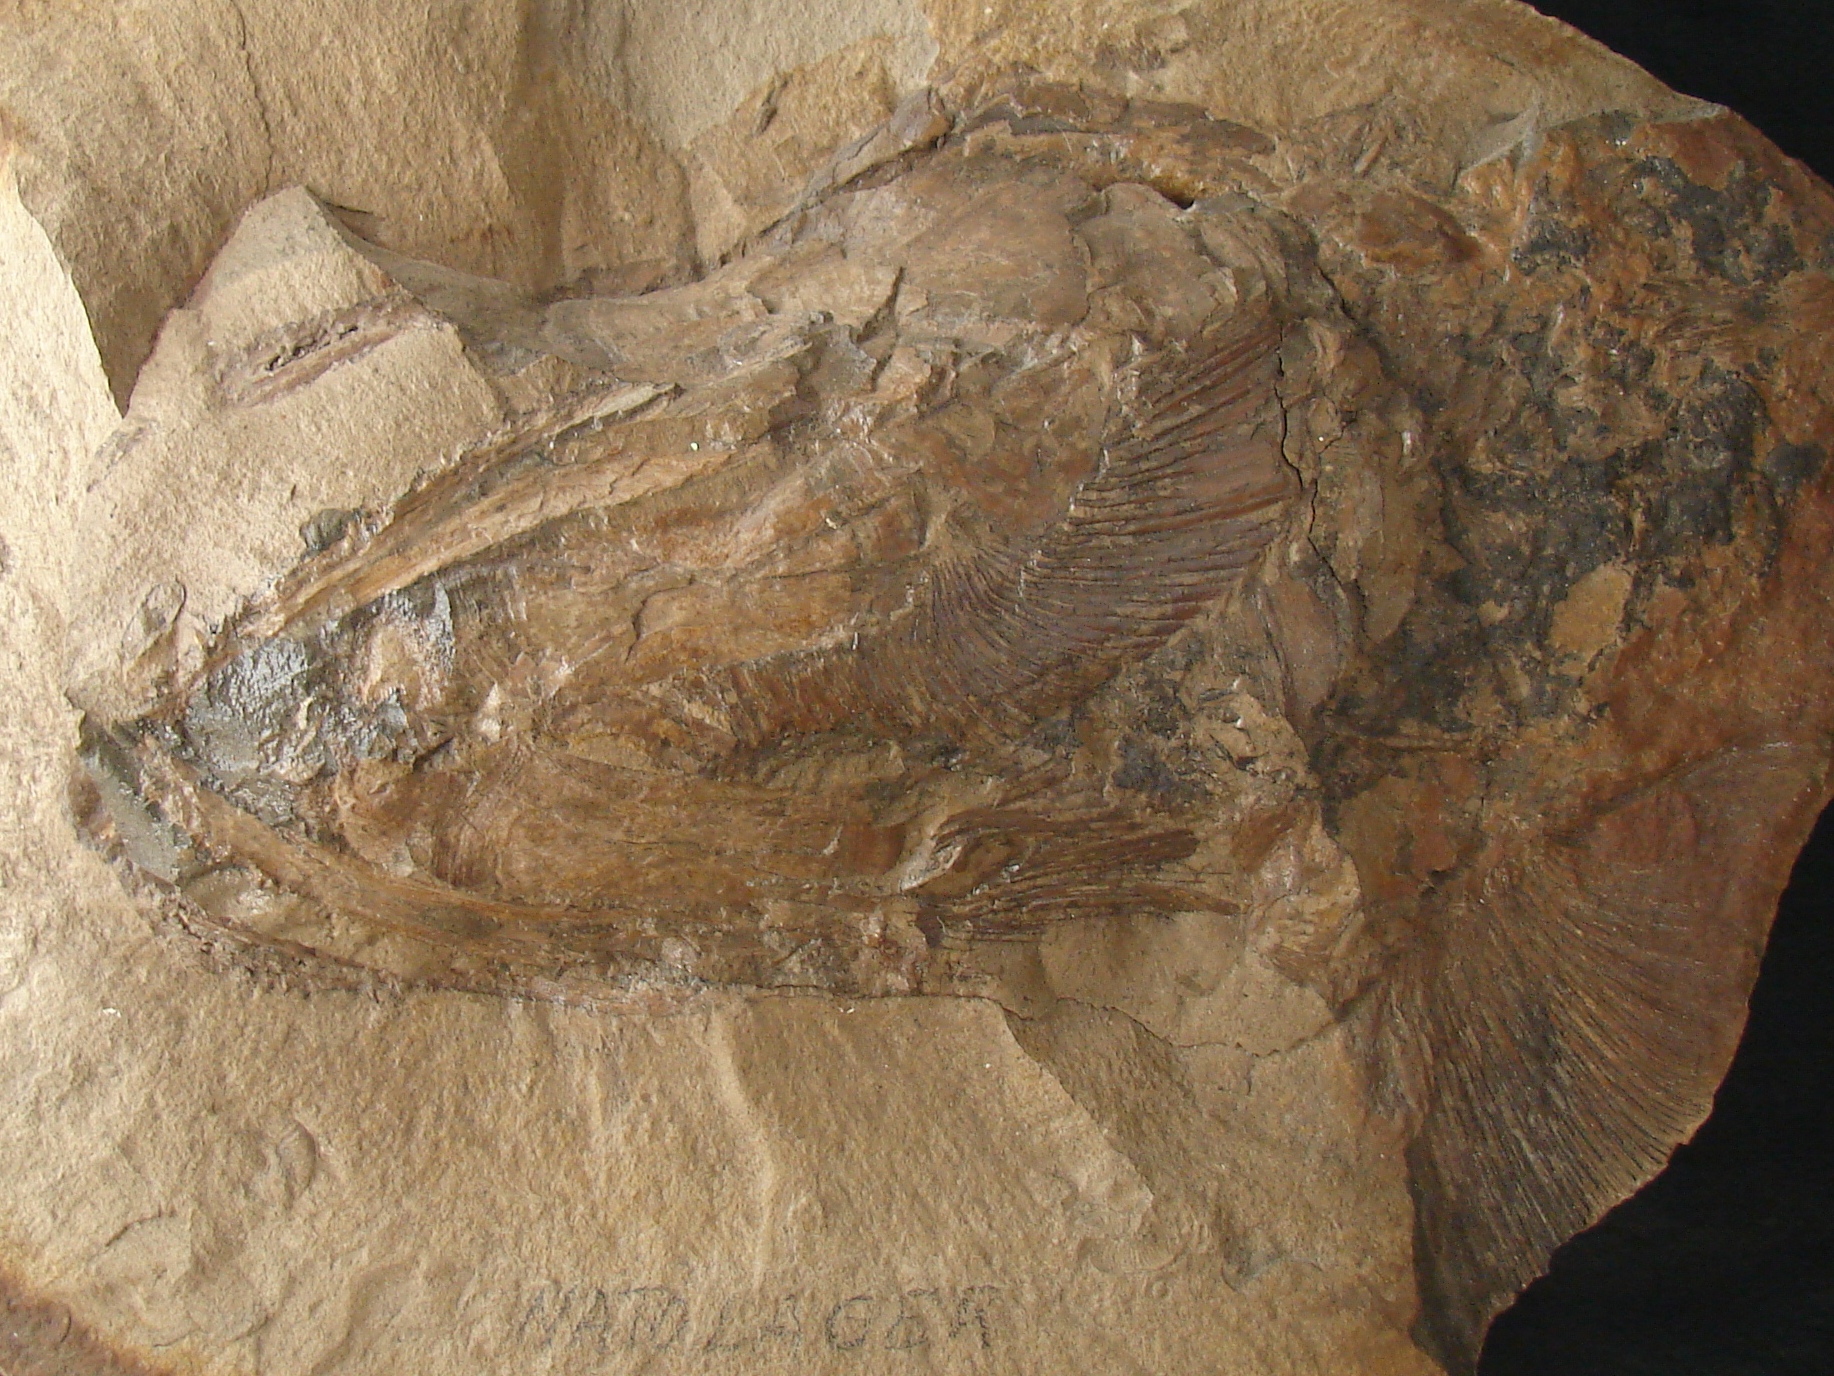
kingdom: Animalia
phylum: Chordata
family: Pachycormidae
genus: Saurostomus
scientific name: Saurostomus
